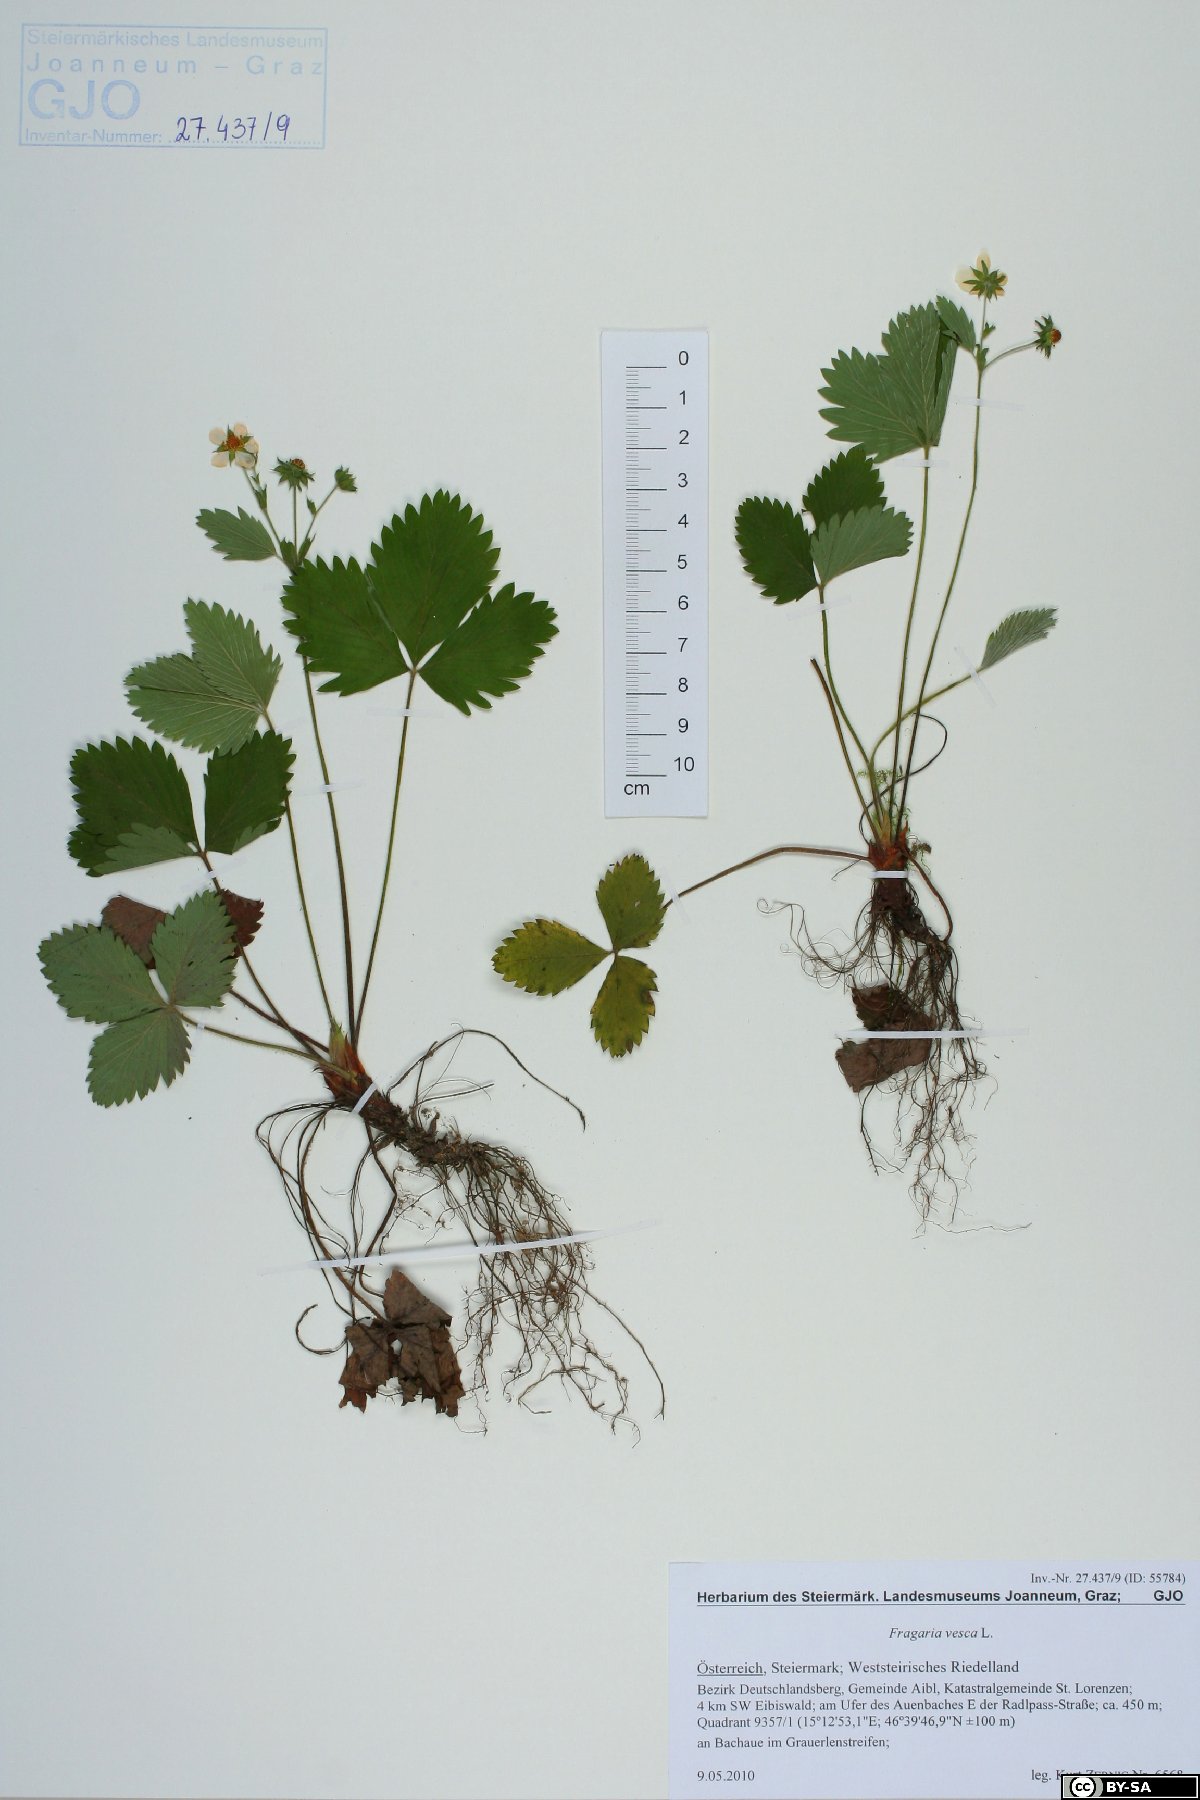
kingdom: Plantae
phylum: Tracheophyta
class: Magnoliopsida
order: Rosales
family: Rosaceae
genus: Fragaria
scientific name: Fragaria vesca
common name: Wild strawberry
